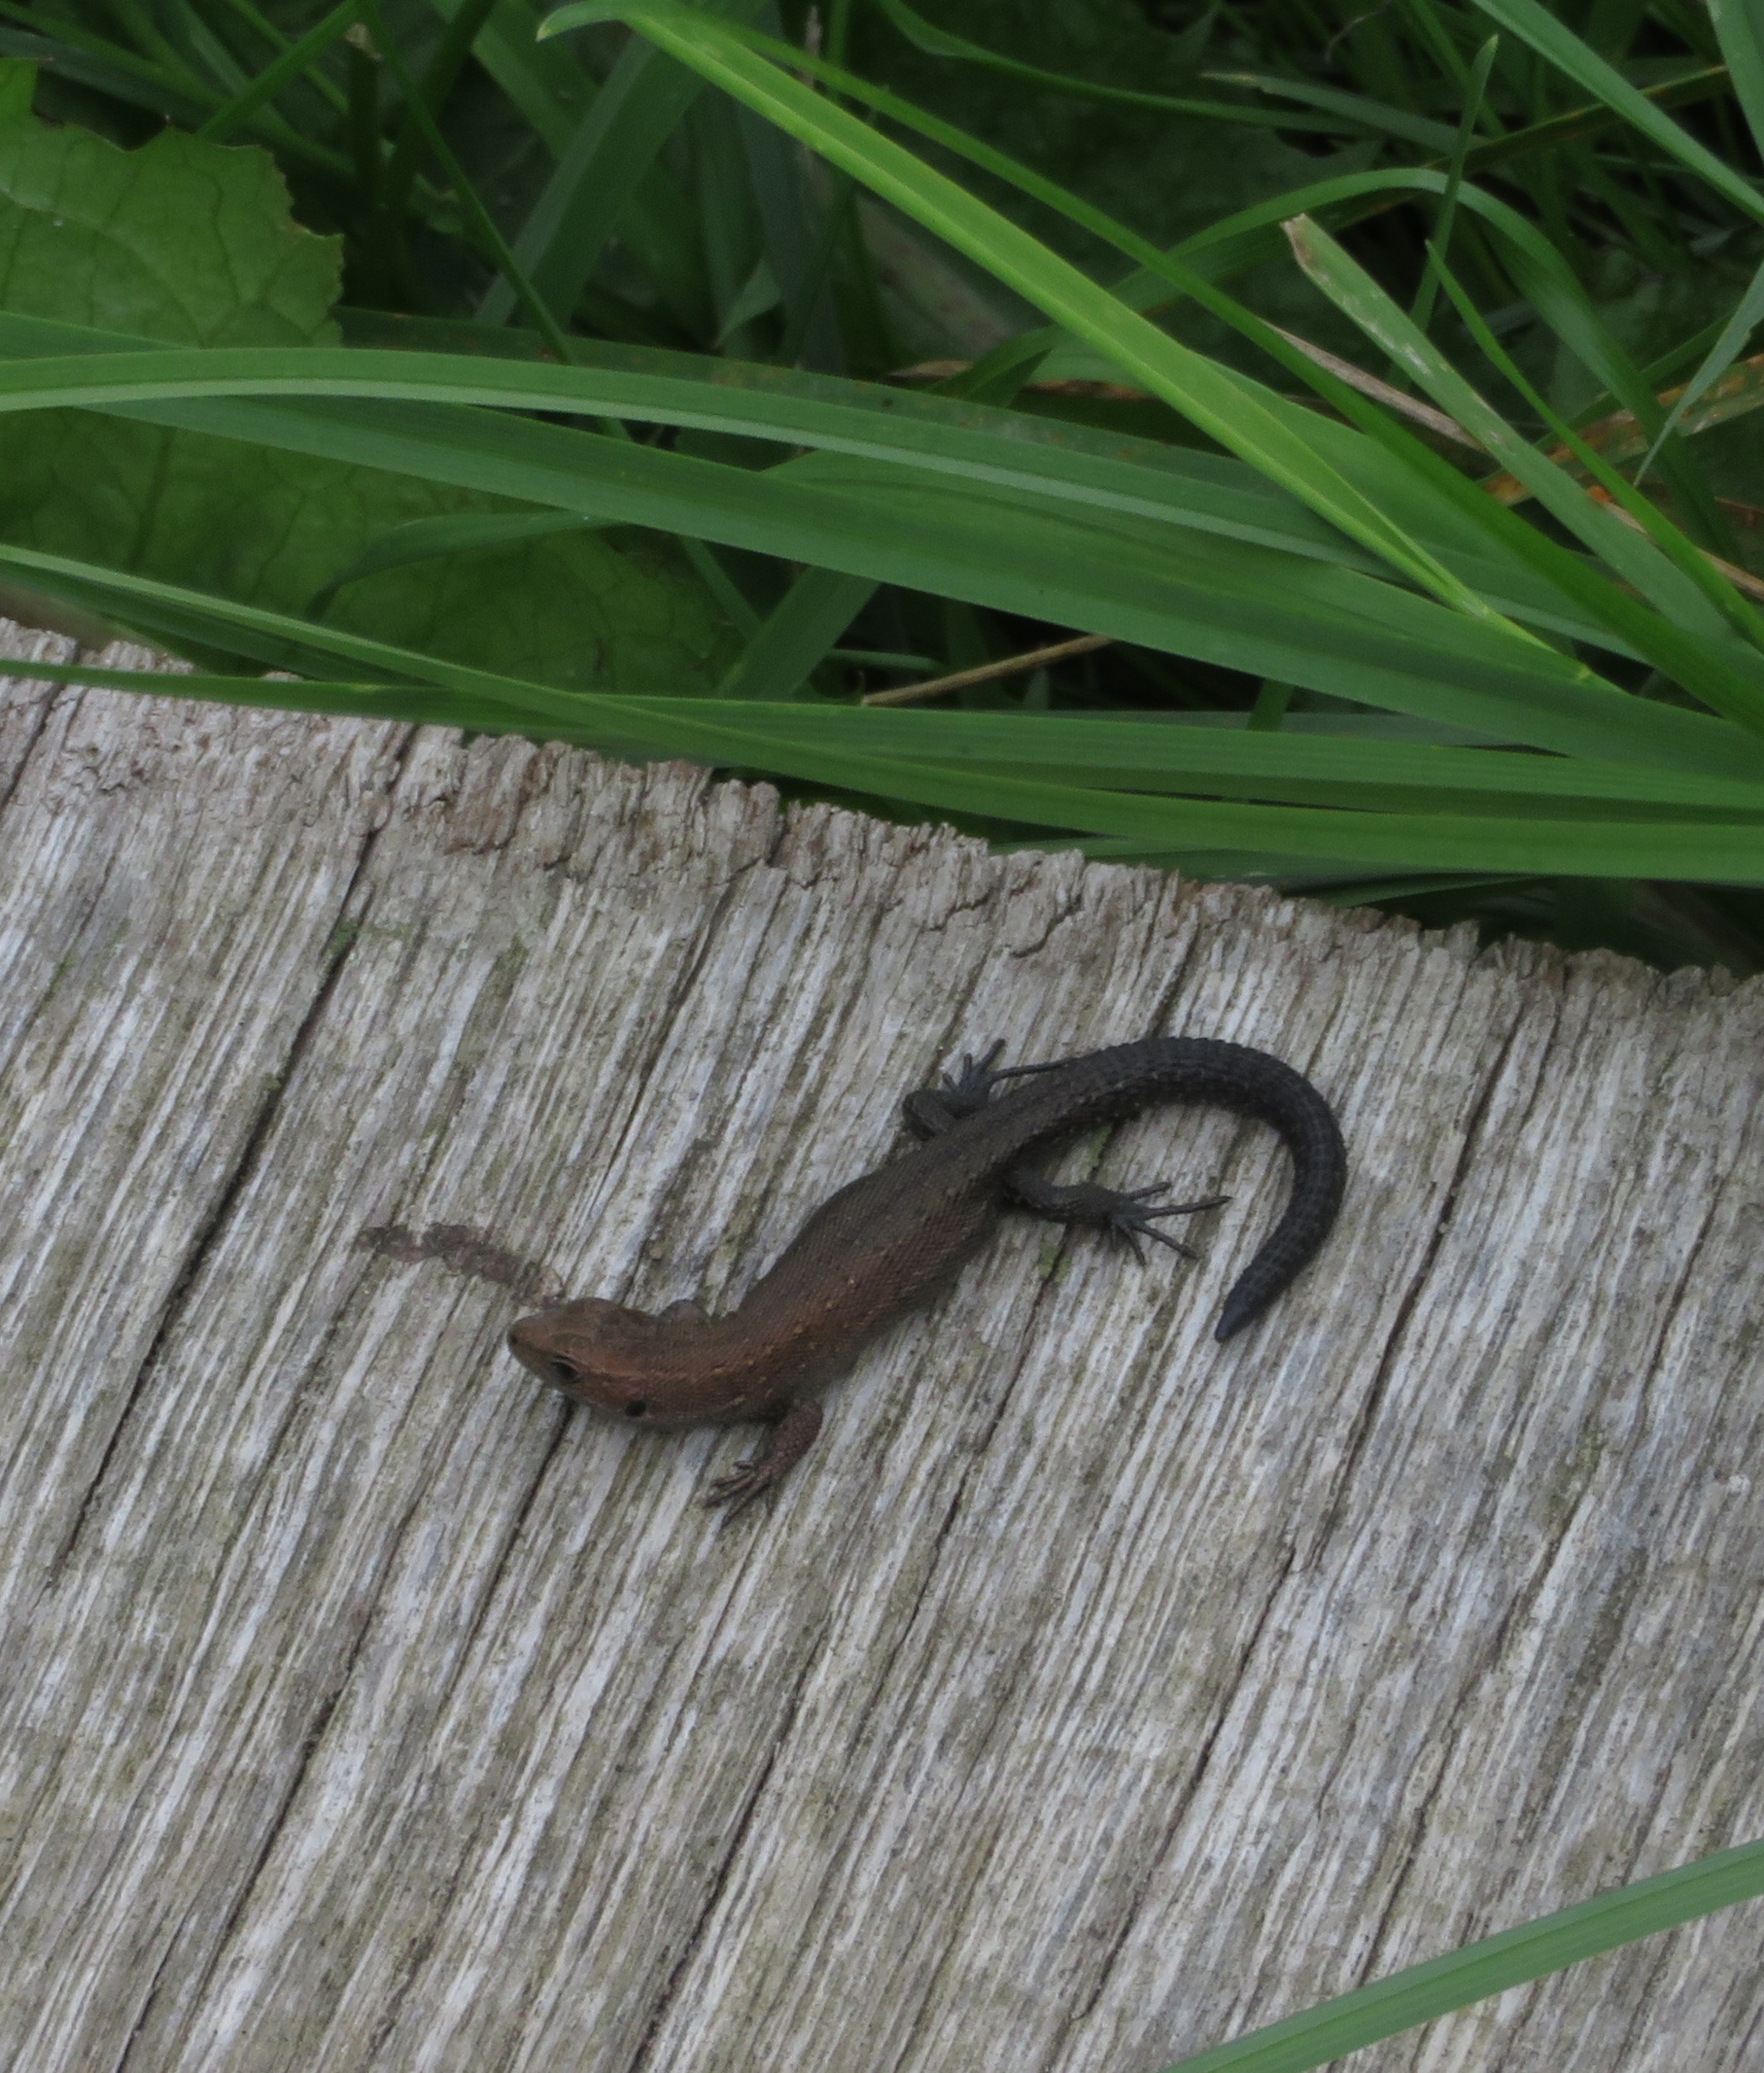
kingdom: Animalia
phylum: Chordata
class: Squamata
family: Lacertidae
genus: Zootoca
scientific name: Zootoca vivipara
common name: Skovfirben
